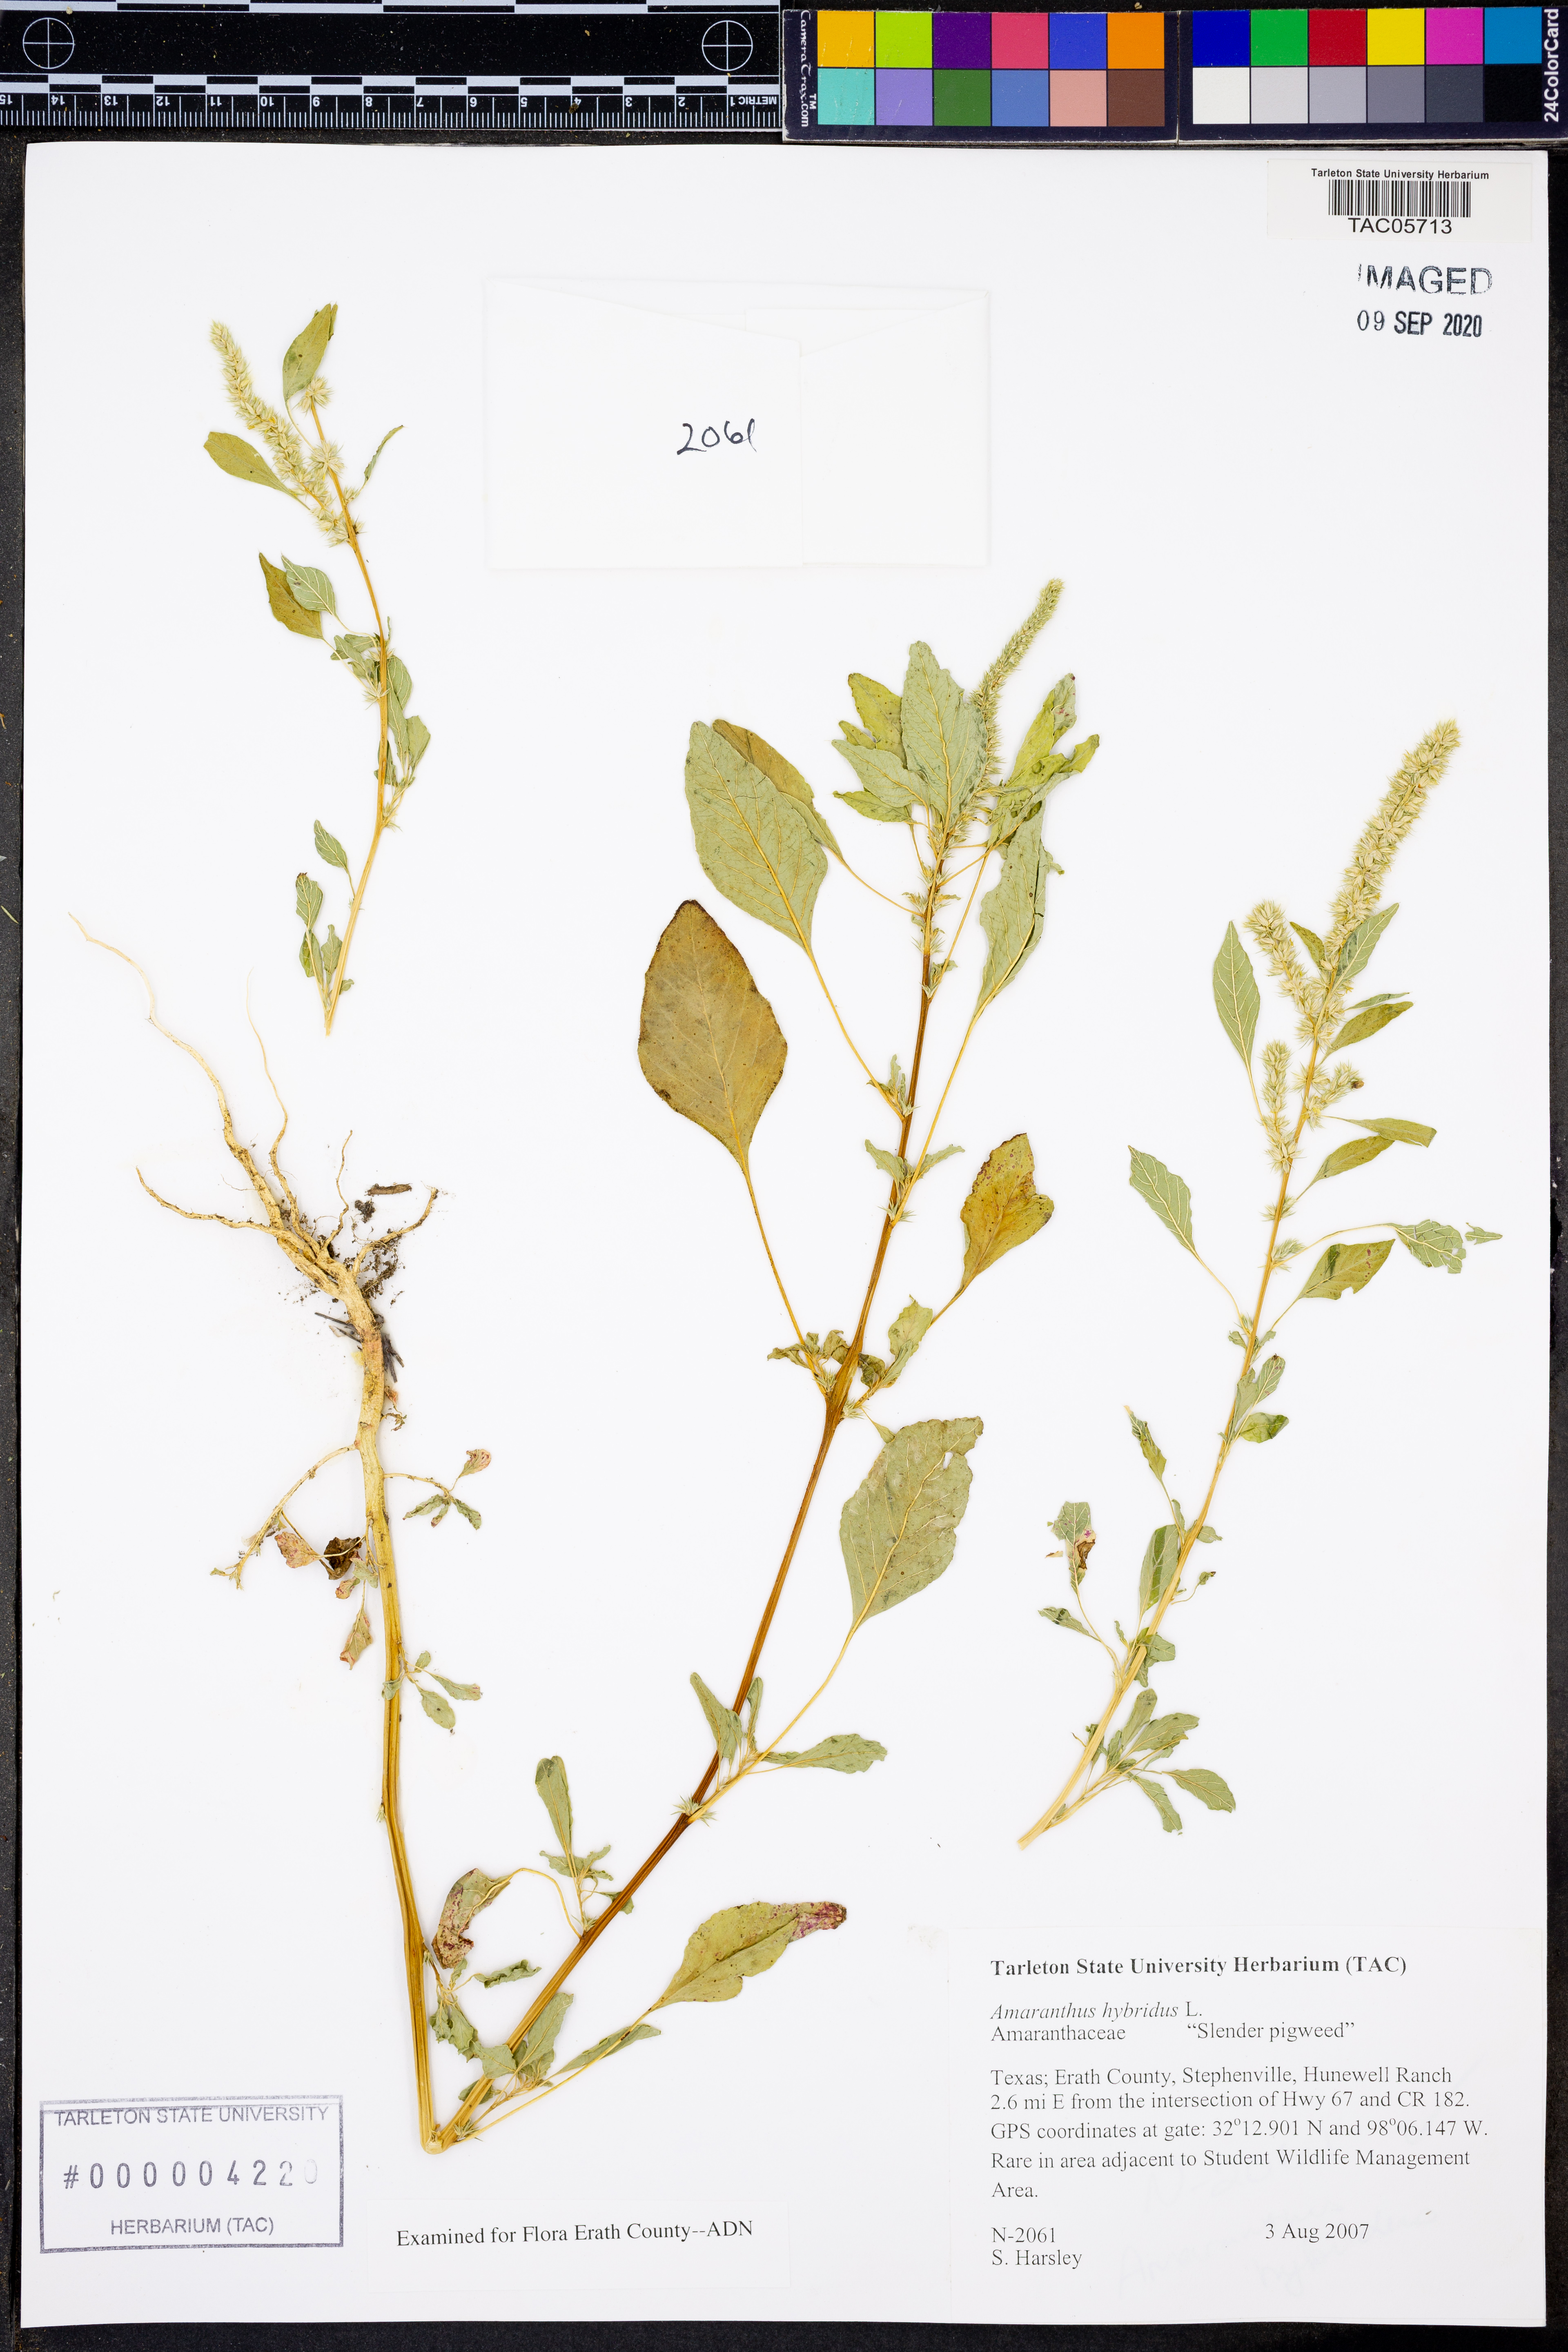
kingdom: Plantae
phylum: Tracheophyta
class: Magnoliopsida
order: Caryophyllales
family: Amaranthaceae
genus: Amaranthus
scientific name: Amaranthus hybridus
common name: Green amaranth
